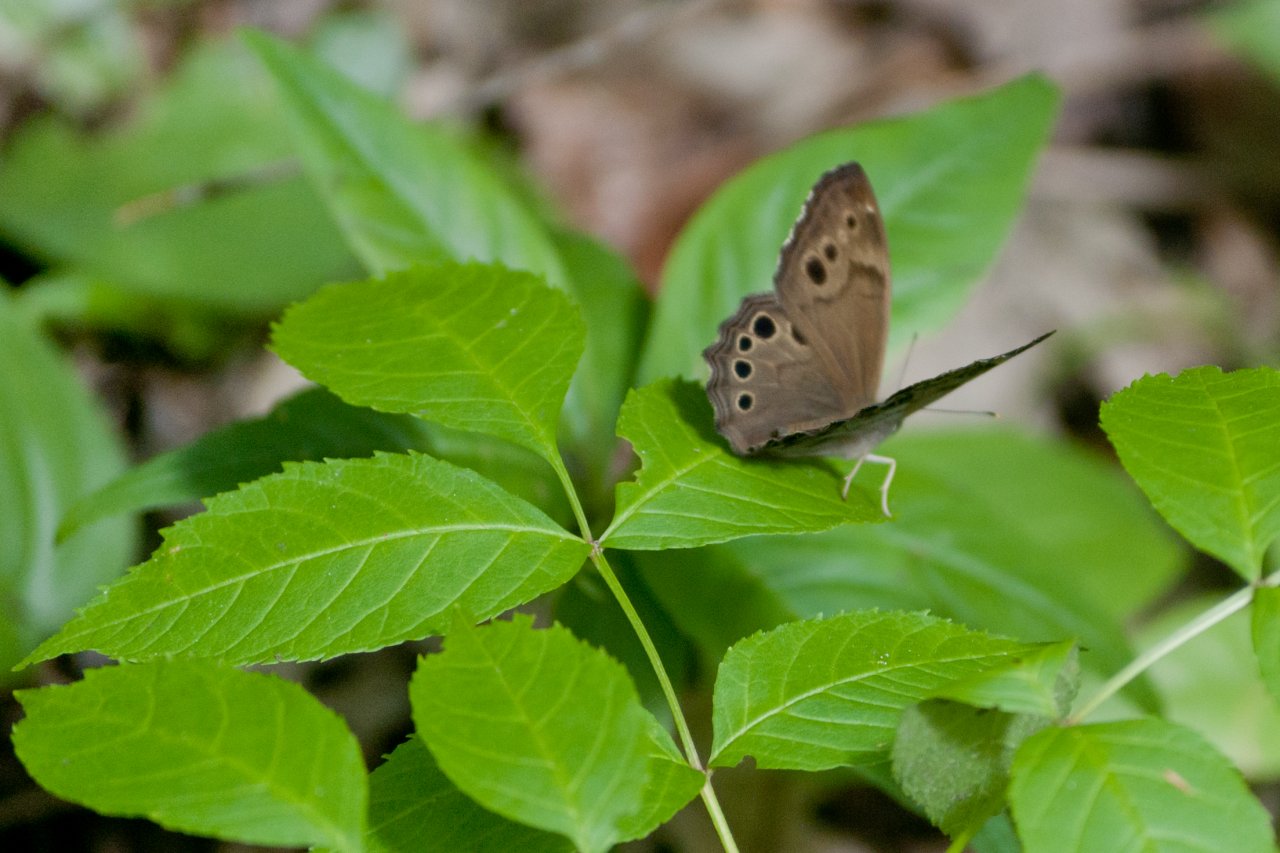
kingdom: Animalia
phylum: Arthropoda
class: Insecta
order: Lepidoptera
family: Nymphalidae
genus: Lethe
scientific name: Lethe anthedon
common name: Northern Pearly-Eye
